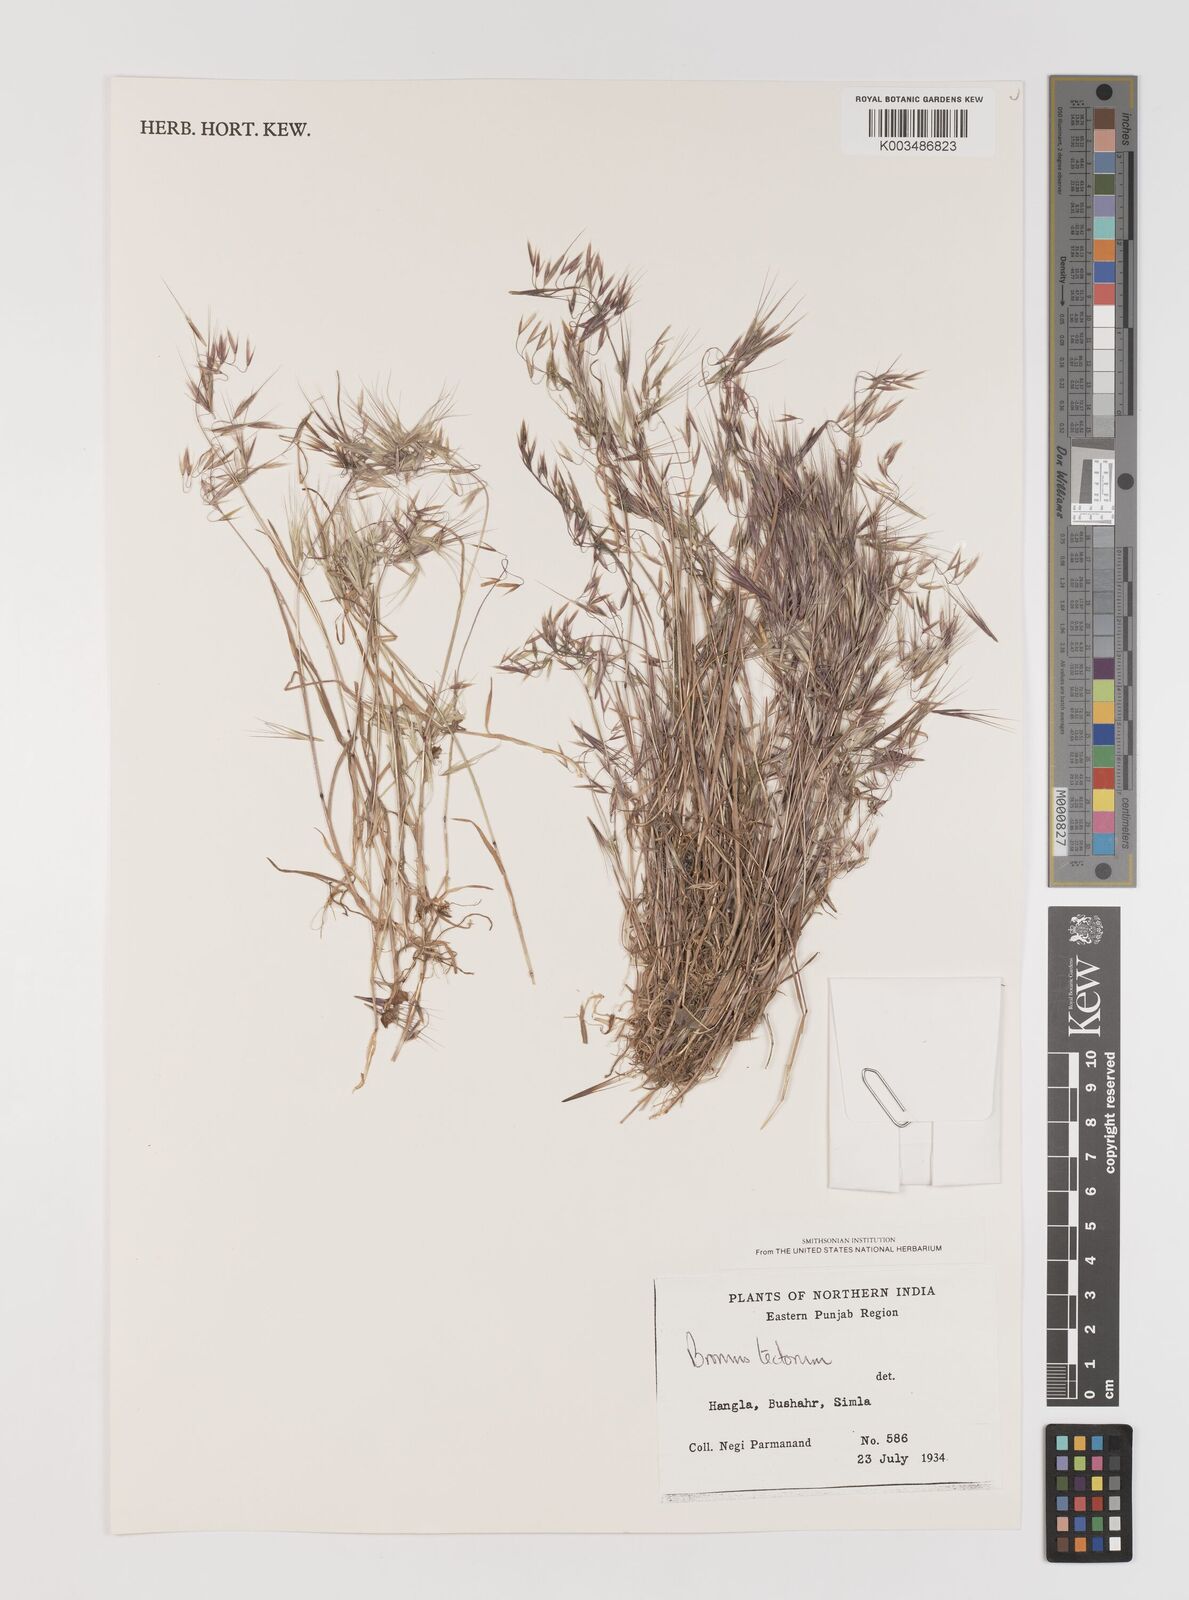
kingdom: Plantae
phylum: Tracheophyta
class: Liliopsida
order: Poales
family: Poaceae
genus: Bromus
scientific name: Bromus tectorum
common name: Cheatgrass
